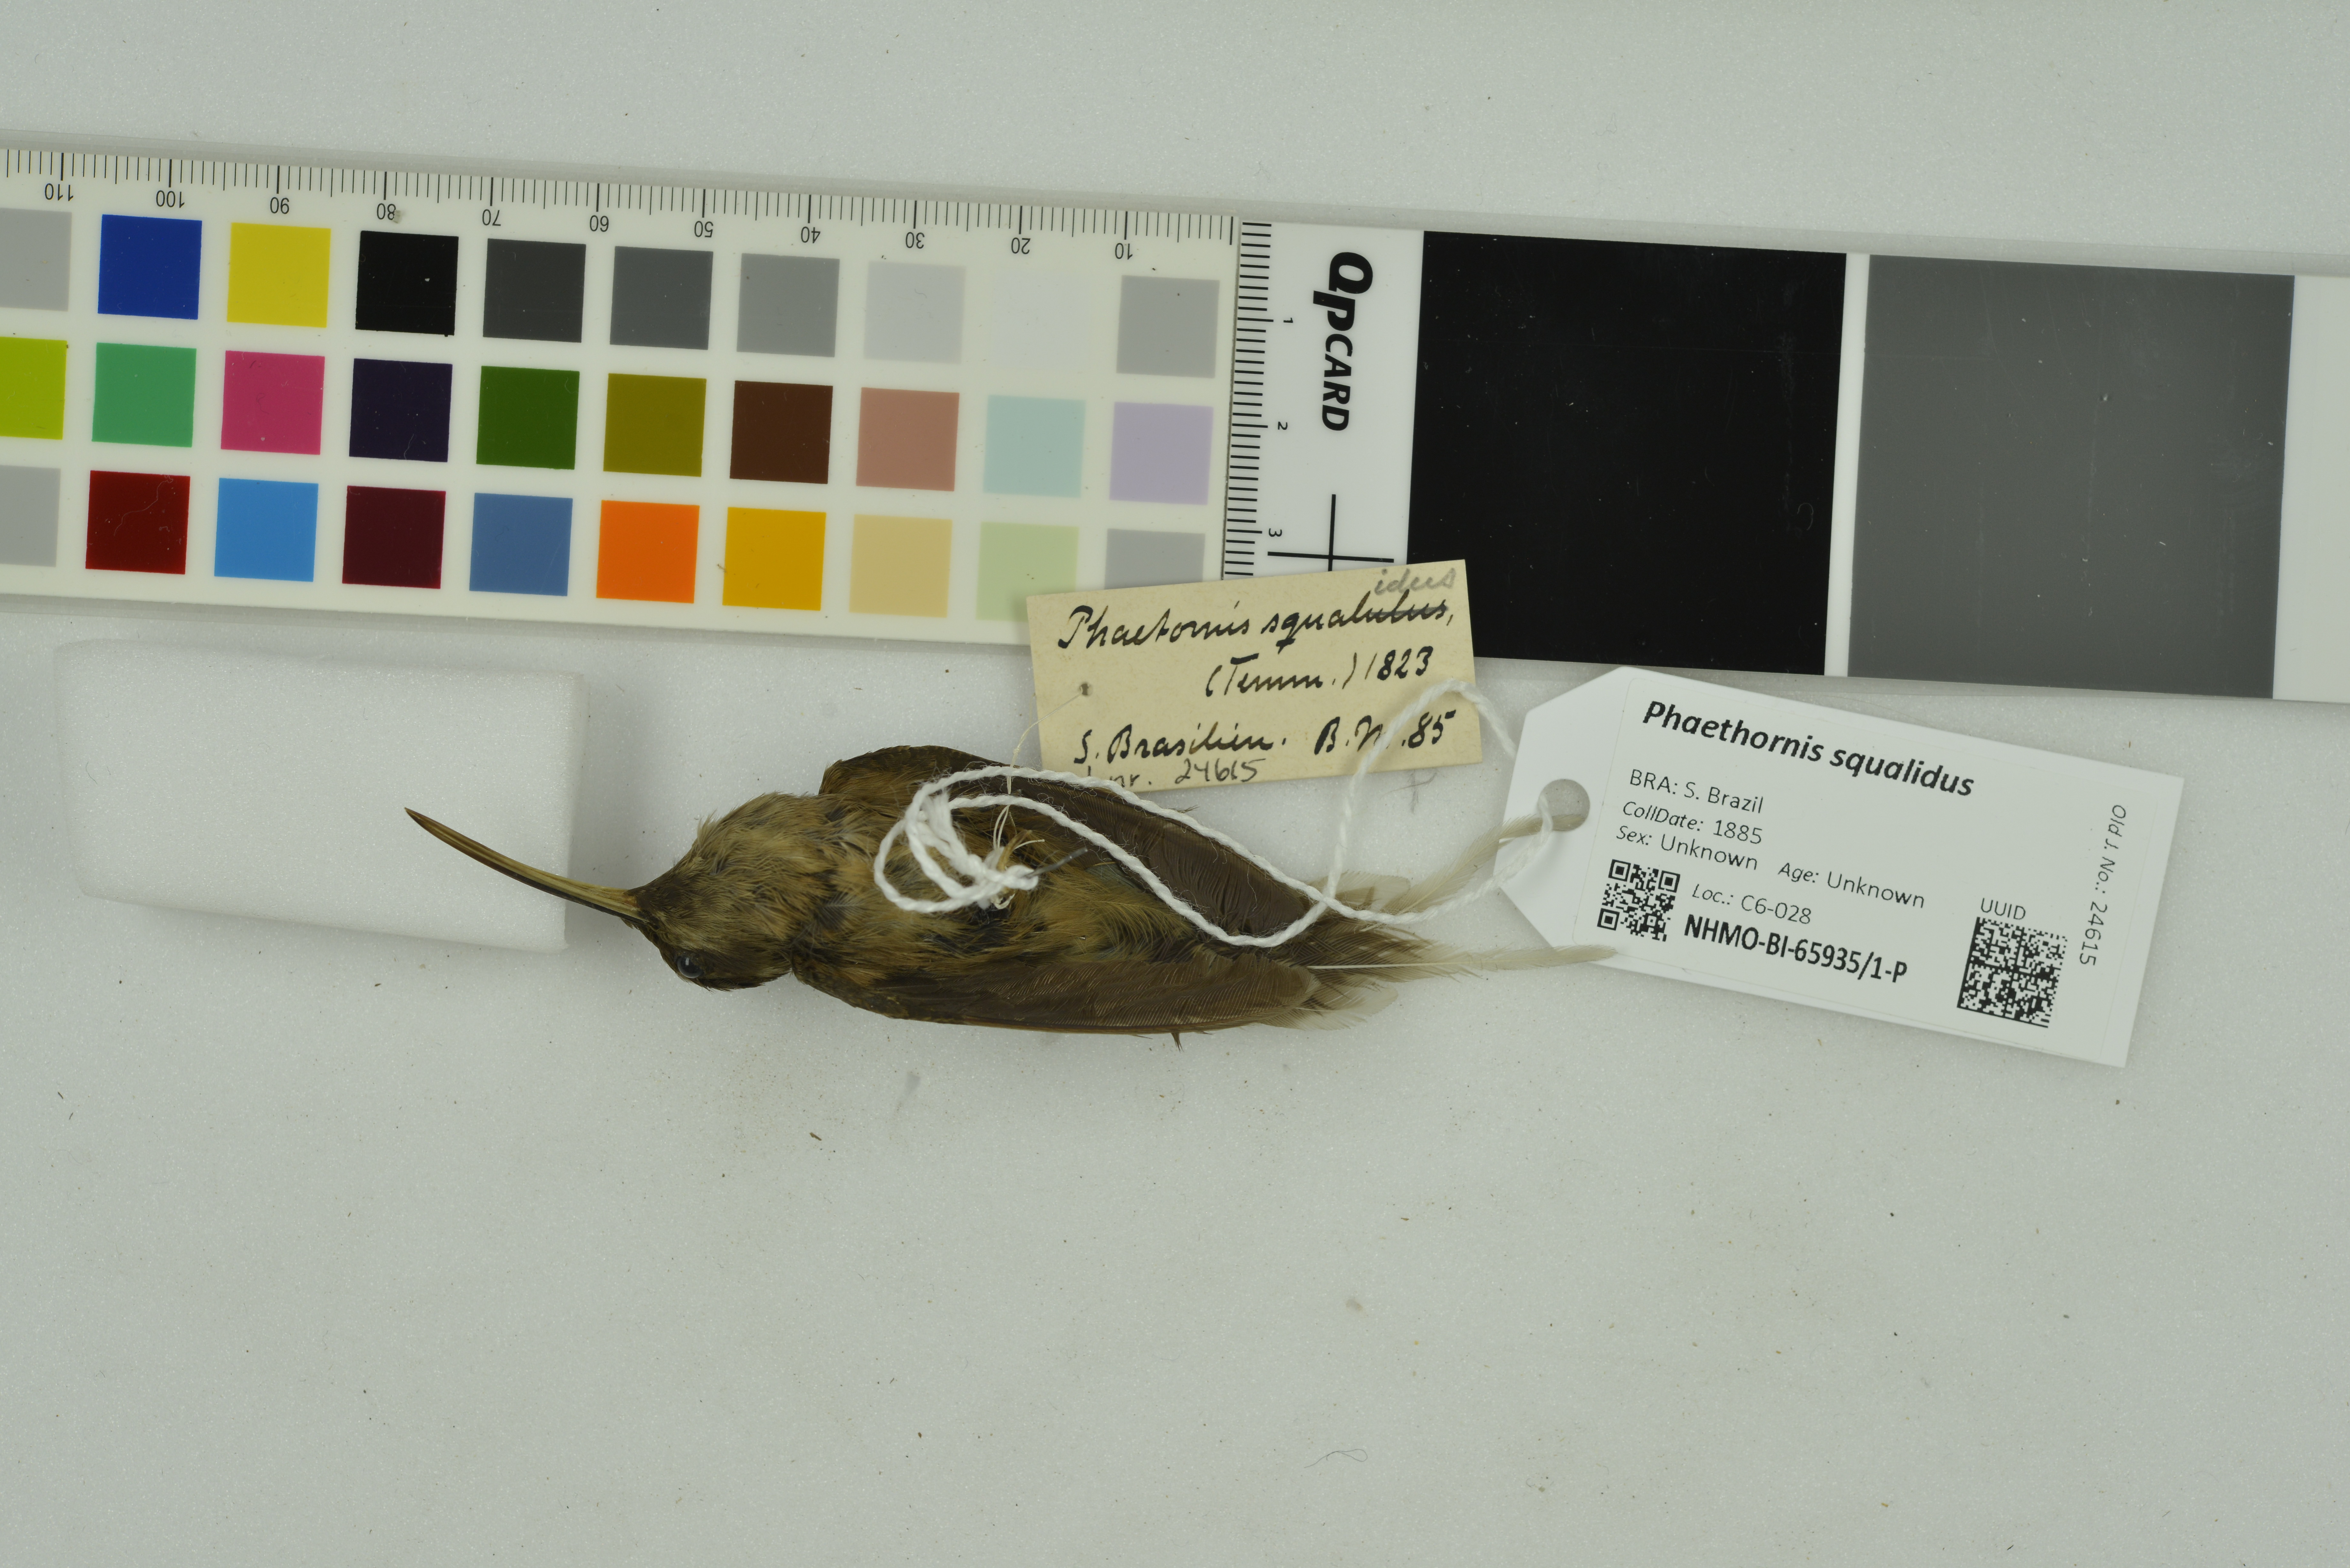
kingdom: Animalia
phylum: Chordata
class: Aves
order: Apodiformes
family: Trochilidae
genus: Phaethornis
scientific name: Phaethornis squalidus
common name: Dusky-throated hermit
